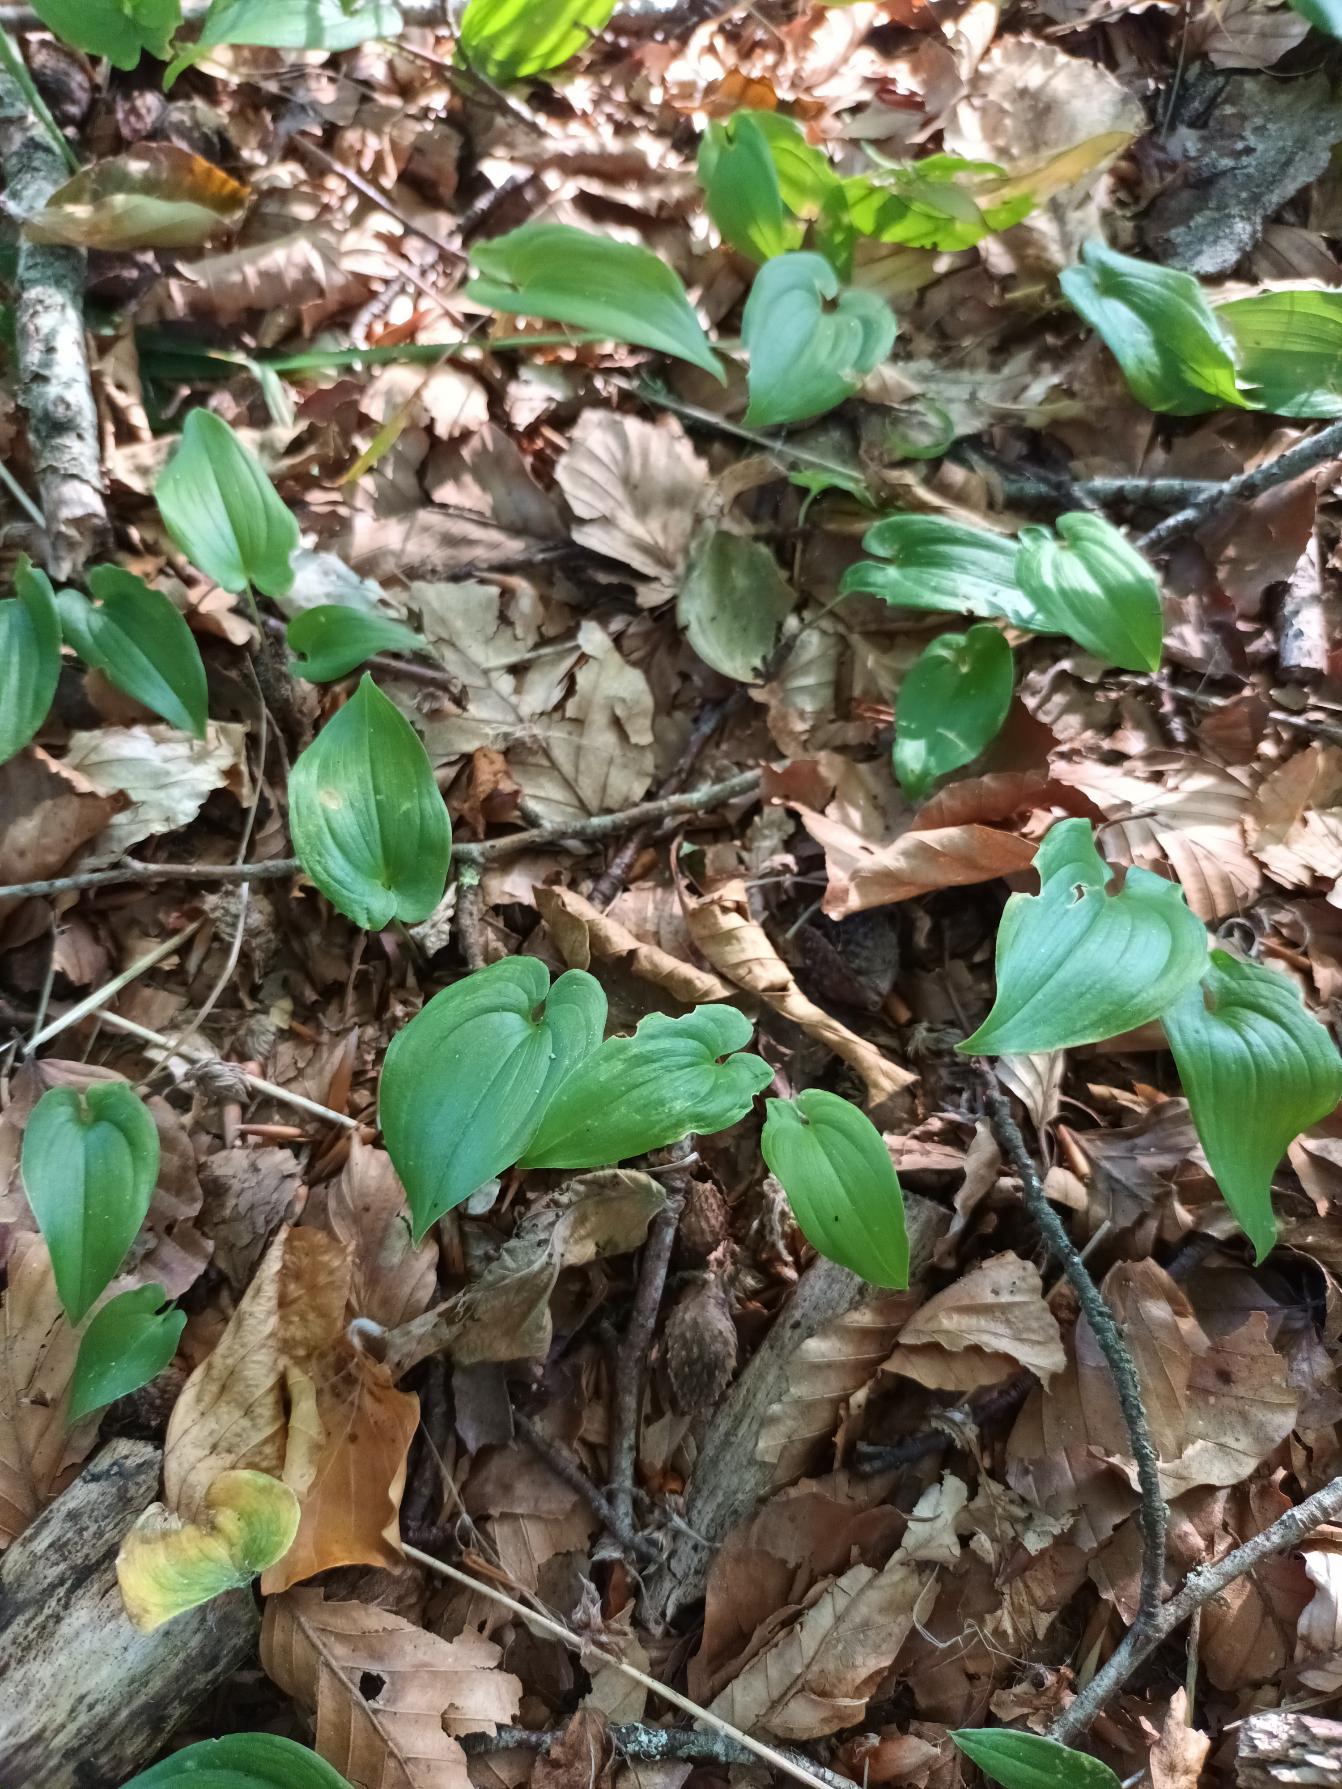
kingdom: Plantae
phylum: Tracheophyta
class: Liliopsida
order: Asparagales
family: Asparagaceae
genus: Maianthemum
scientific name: Maianthemum bifolium
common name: Majblomst
